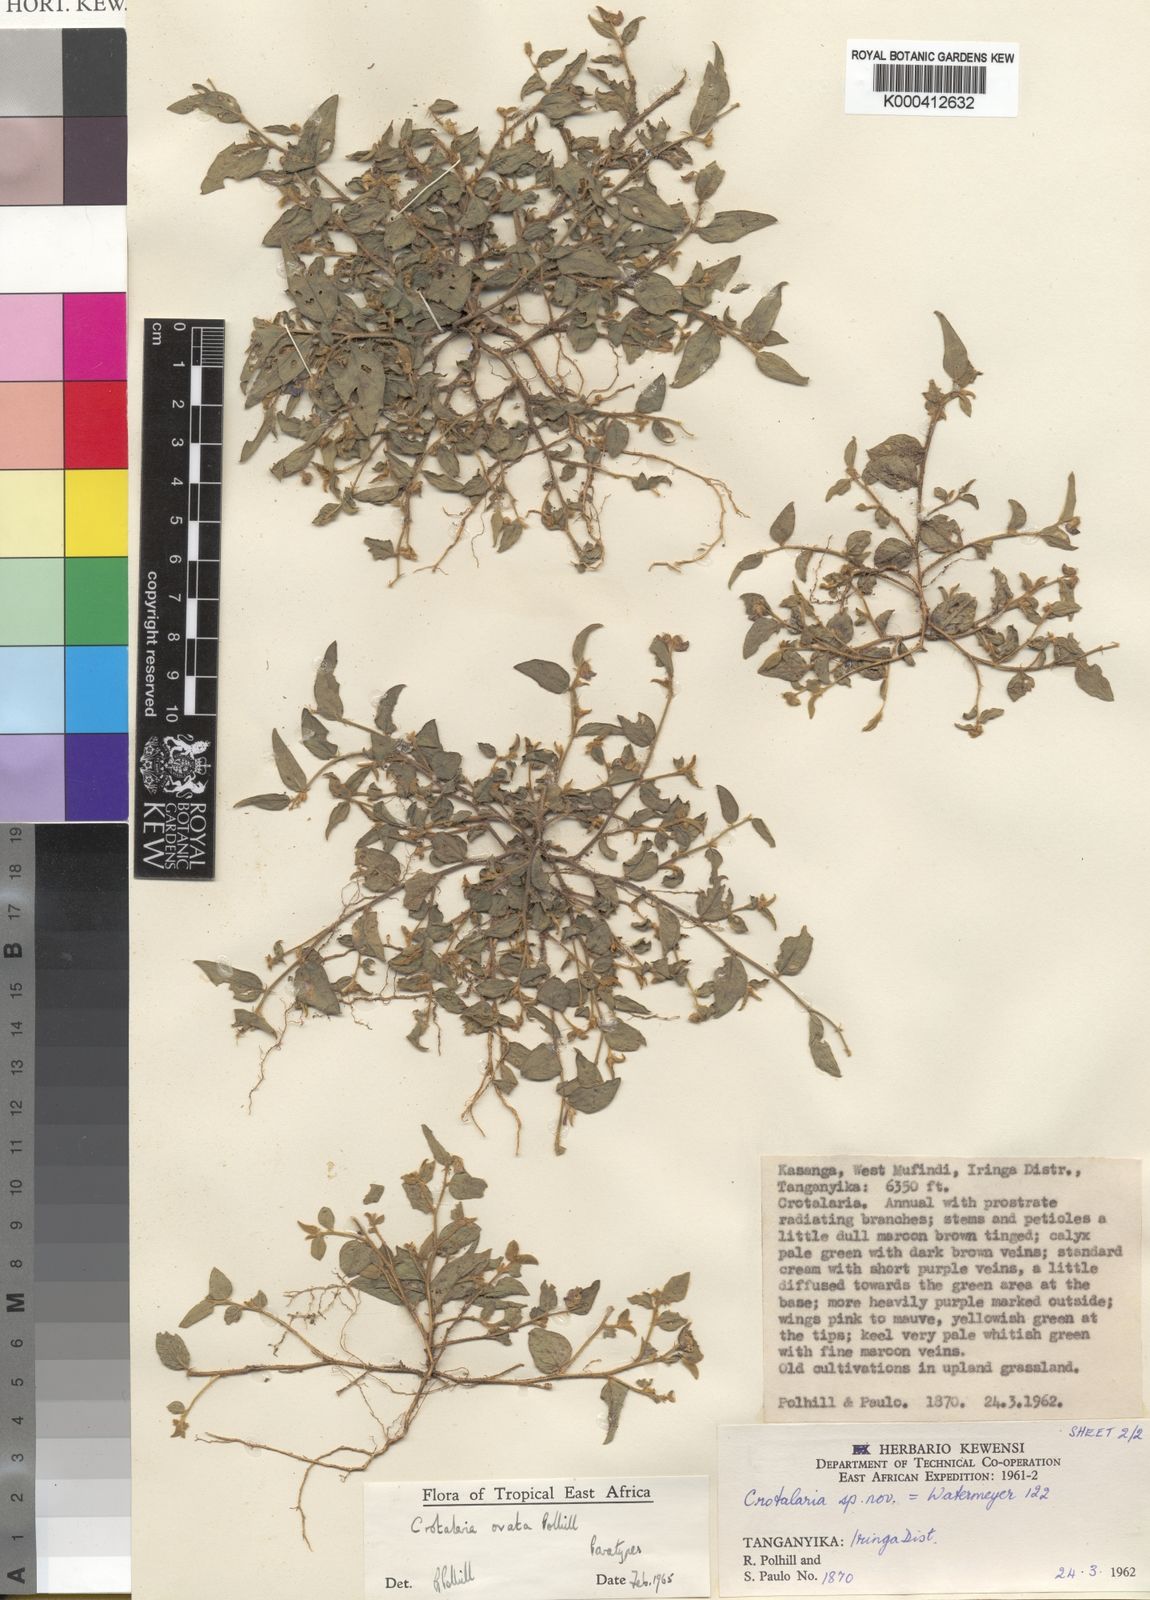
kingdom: Plantae
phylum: Tracheophyta
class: Magnoliopsida
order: Fabales
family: Fabaceae
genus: Crotalaria
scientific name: Crotalaria ovata
